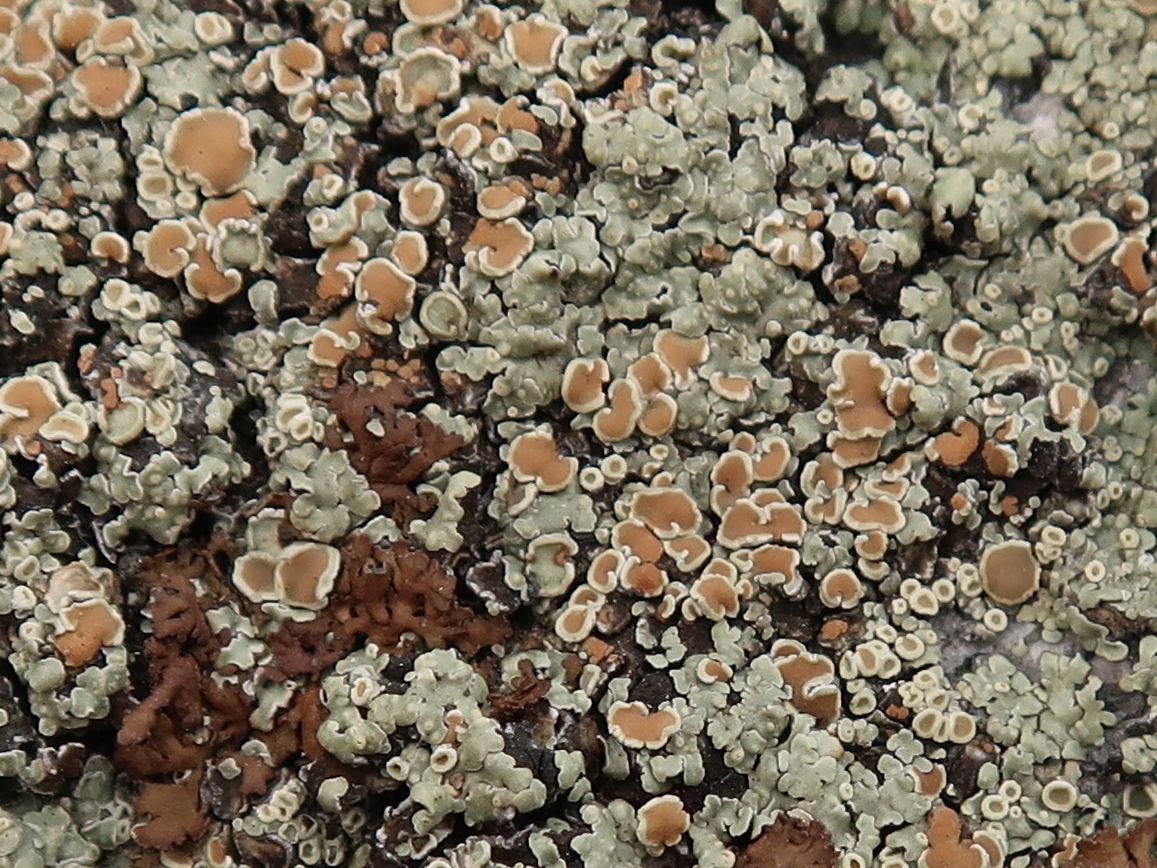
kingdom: Fungi
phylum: Ascomycota
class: Lecanoromycetes
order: Lecanorales
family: Lecanoraceae
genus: Protoparmeliopsis
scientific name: Protoparmeliopsis muralis
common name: randfliget kantskivelav
